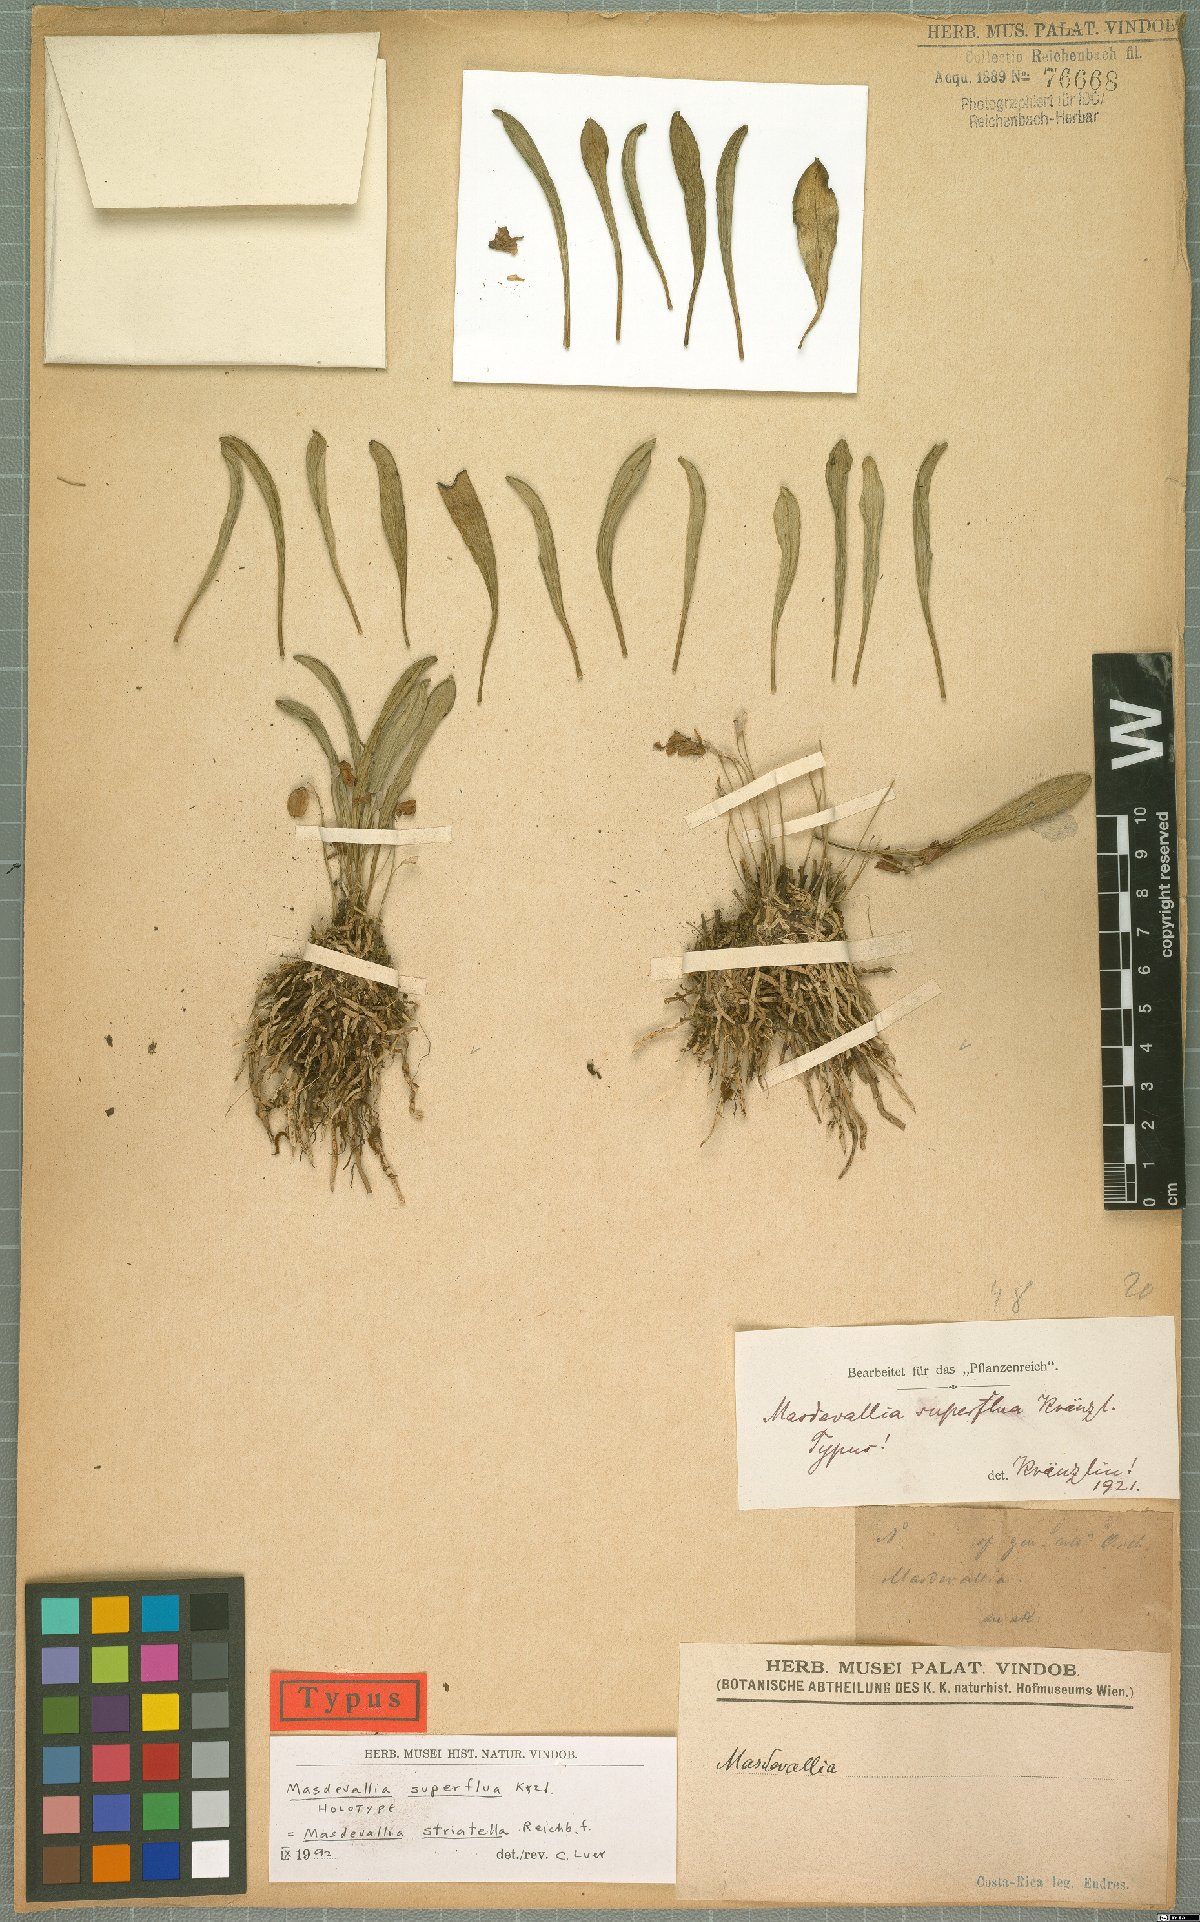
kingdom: Plantae
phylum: Tracheophyta
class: Liliopsida
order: Asparagales
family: Orchidaceae
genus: Masdevallia
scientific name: Masdevallia striatella
